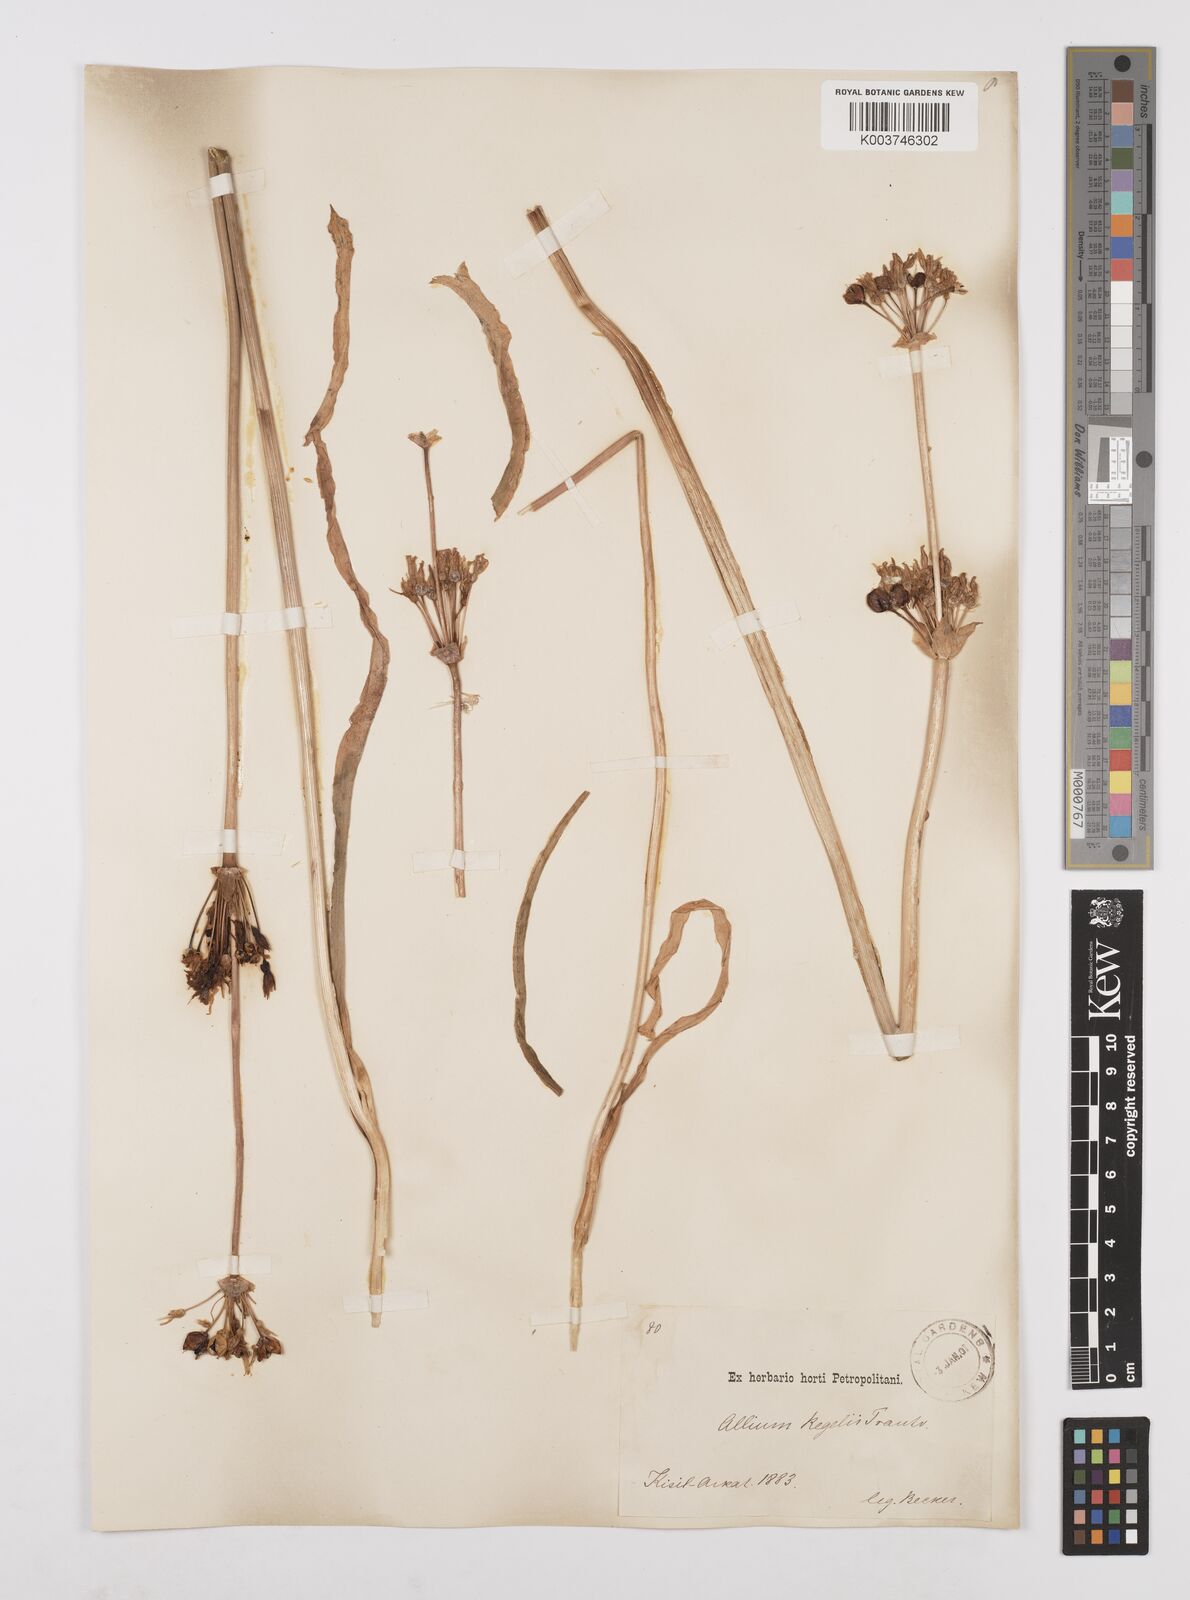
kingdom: Plantae
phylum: Tracheophyta
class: Liliopsida
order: Asparagales
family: Amaryllidaceae
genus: Allium
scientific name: Allium regelii
